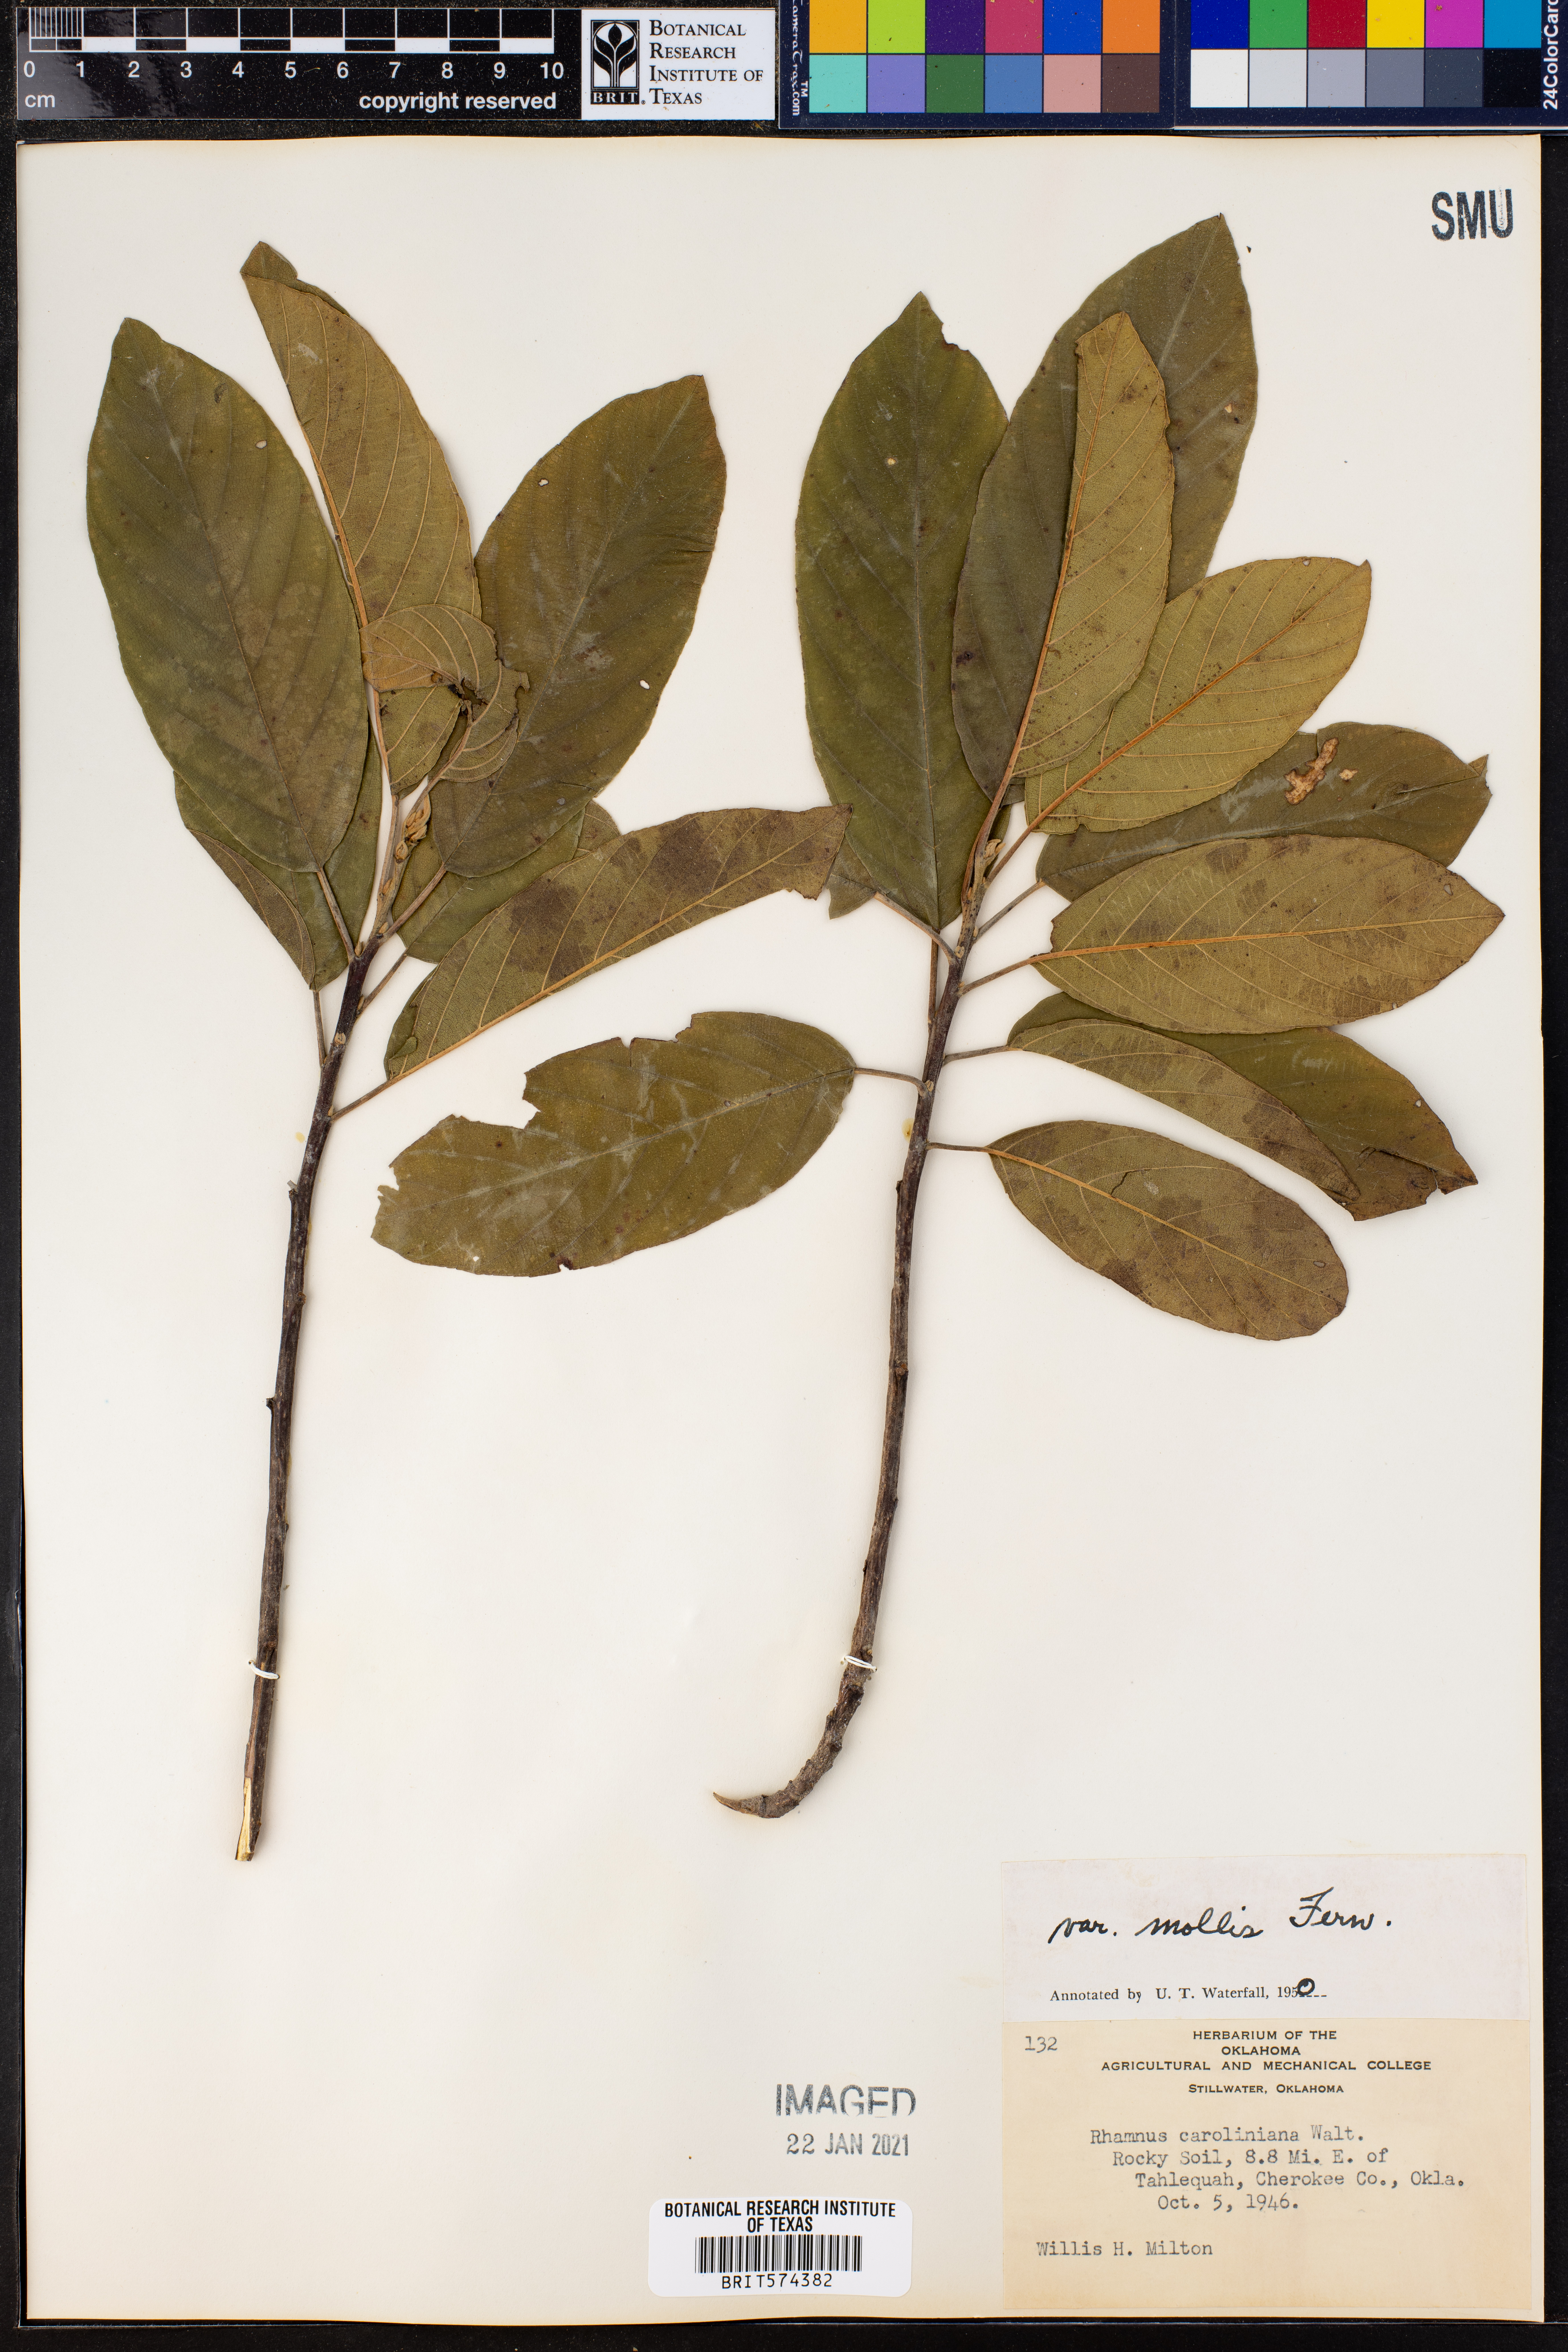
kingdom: Plantae
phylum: Tracheophyta
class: Magnoliopsida
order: Rosales
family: Rhamnaceae
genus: Frangula
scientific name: Frangula caroliniana
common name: Carolina buckthorn
